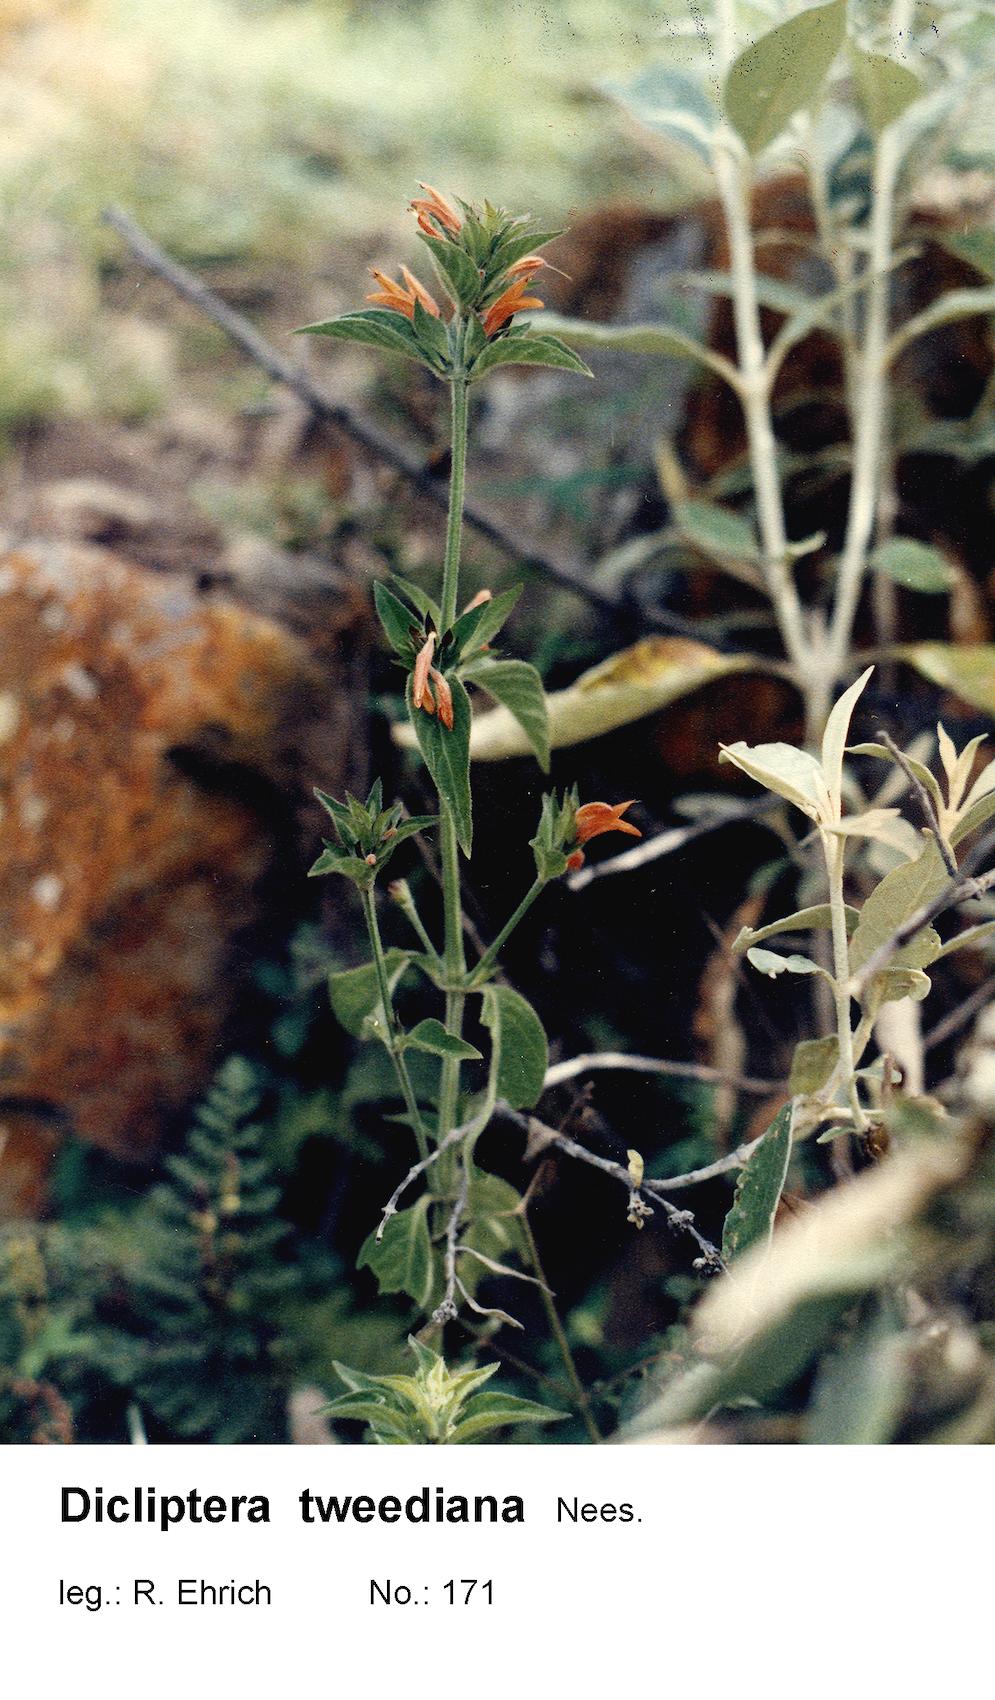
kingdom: Plantae
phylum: Tracheophyta
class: Magnoliopsida
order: Lamiales
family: Acanthaceae
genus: Dicliptera
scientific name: Dicliptera squarrosa
